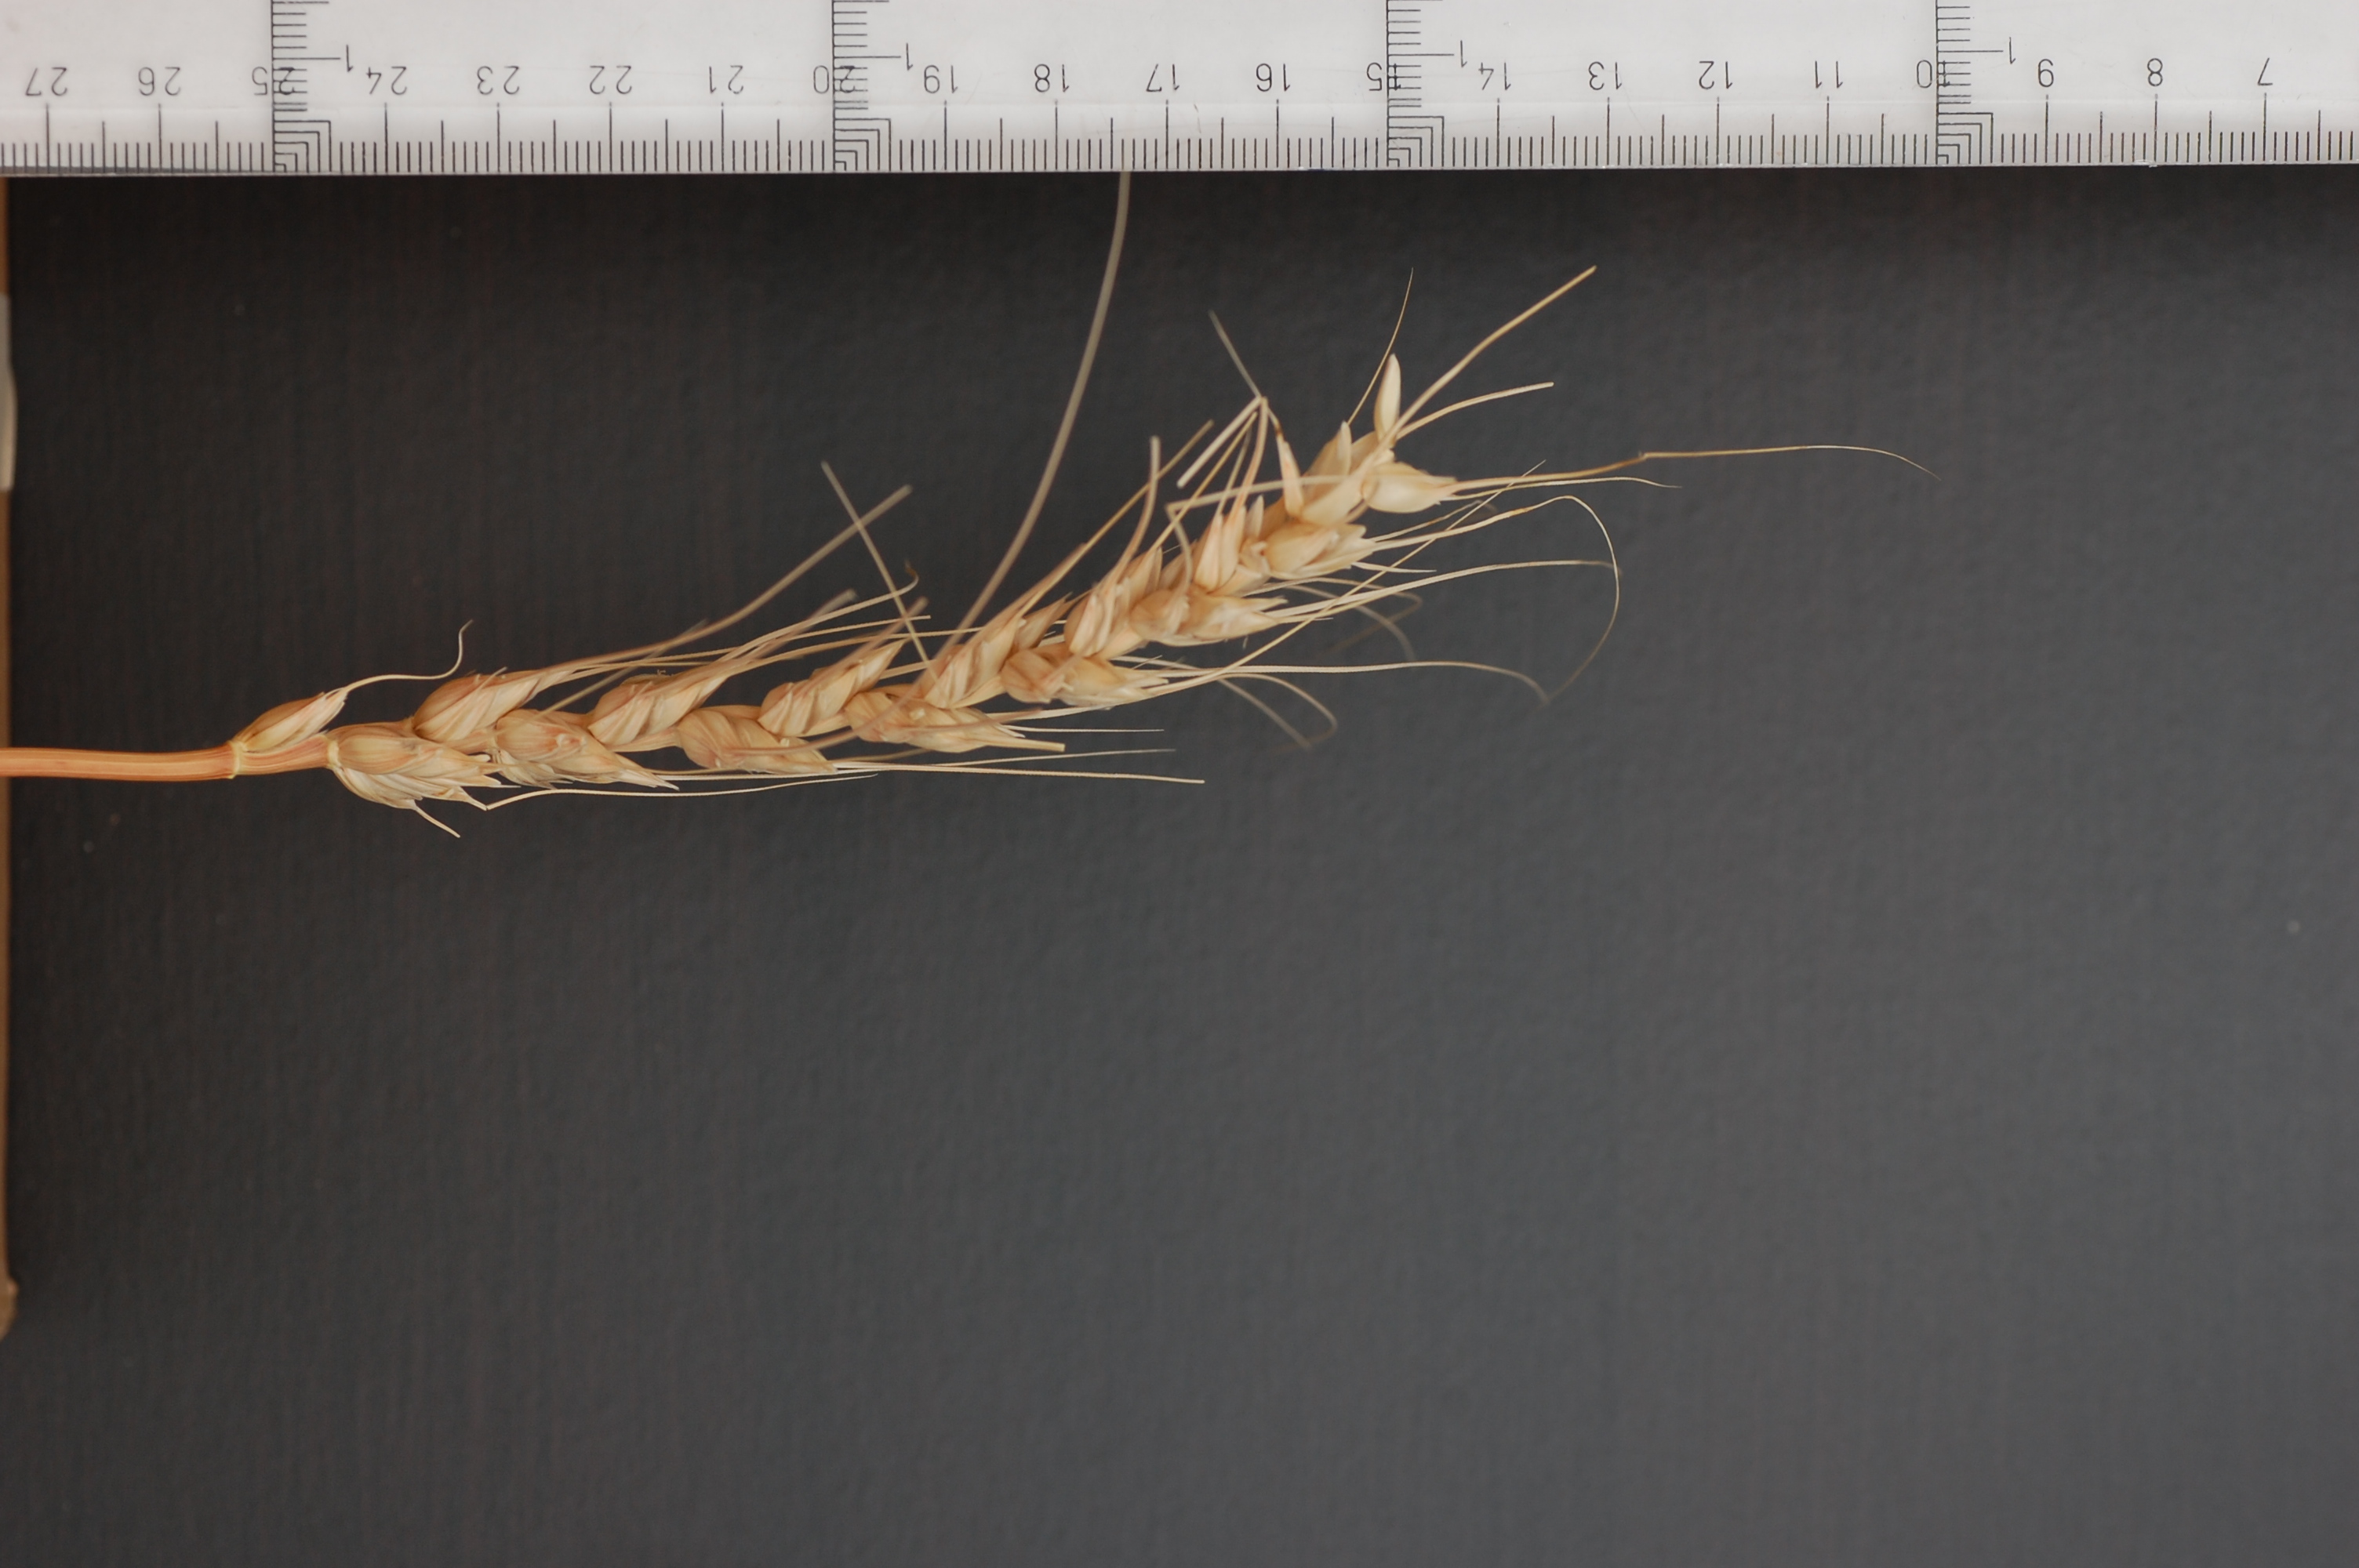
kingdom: Plantae
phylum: Tracheophyta
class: Liliopsida
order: Poales
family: Poaceae
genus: Triticum
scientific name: Triticum aestivum
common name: Common wheat
